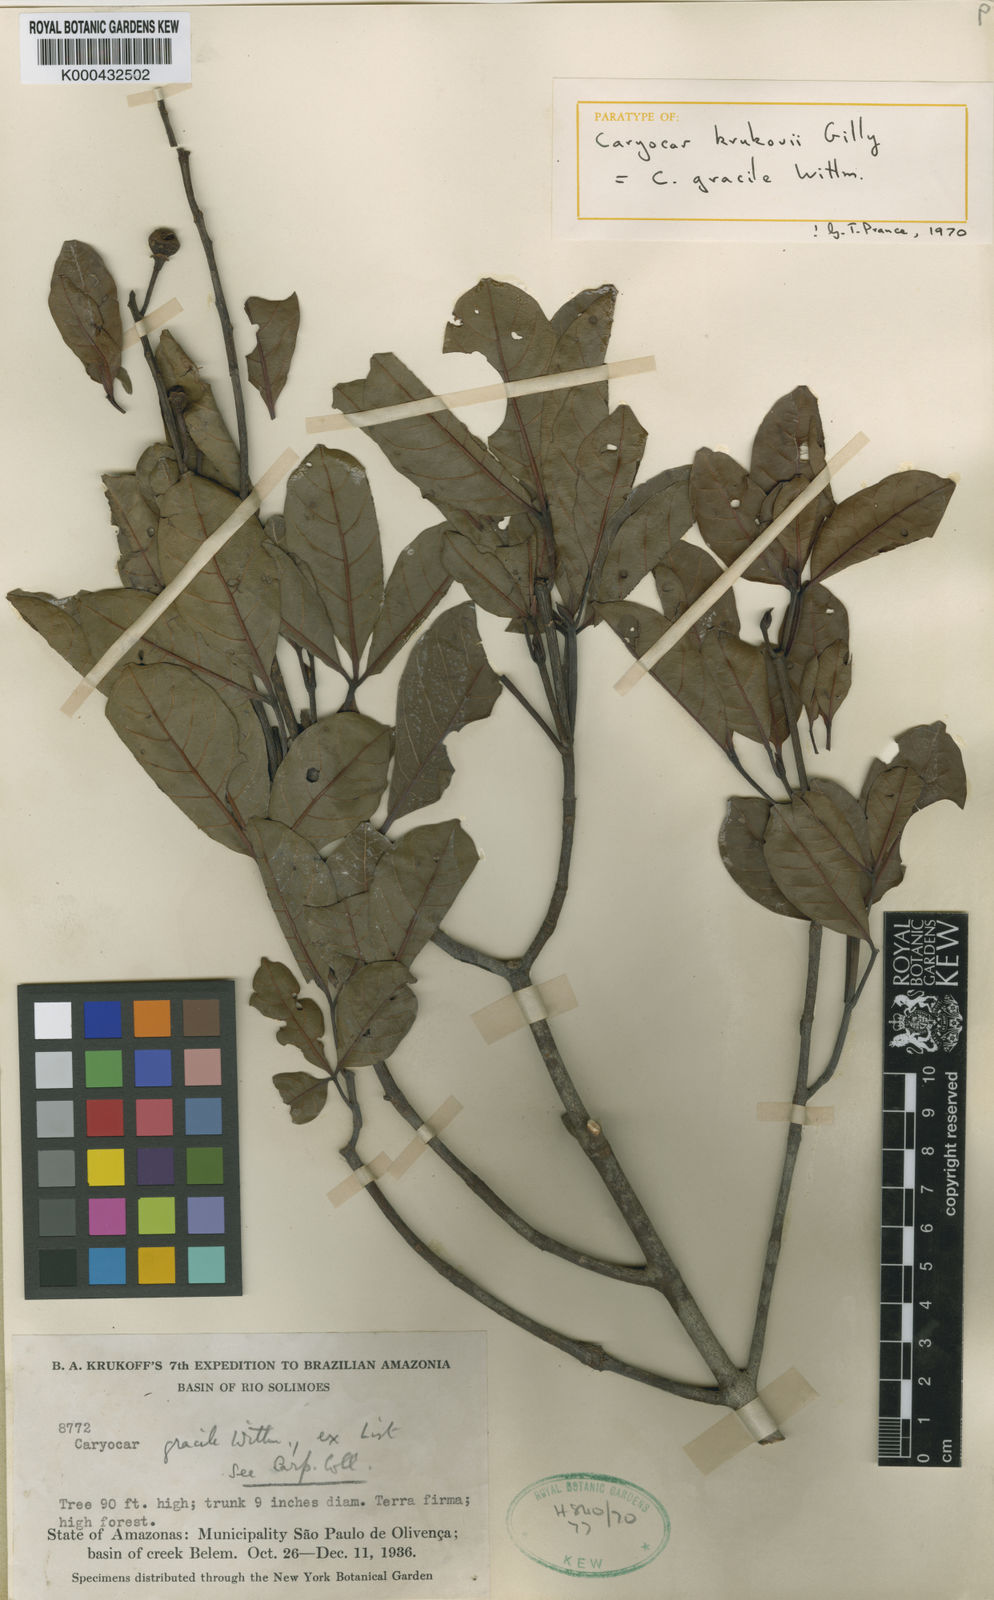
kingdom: Plantae
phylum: Tracheophyta
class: Magnoliopsida
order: Malpighiales
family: Caryocaraceae
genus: Caryocar
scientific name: Caryocar gracile
